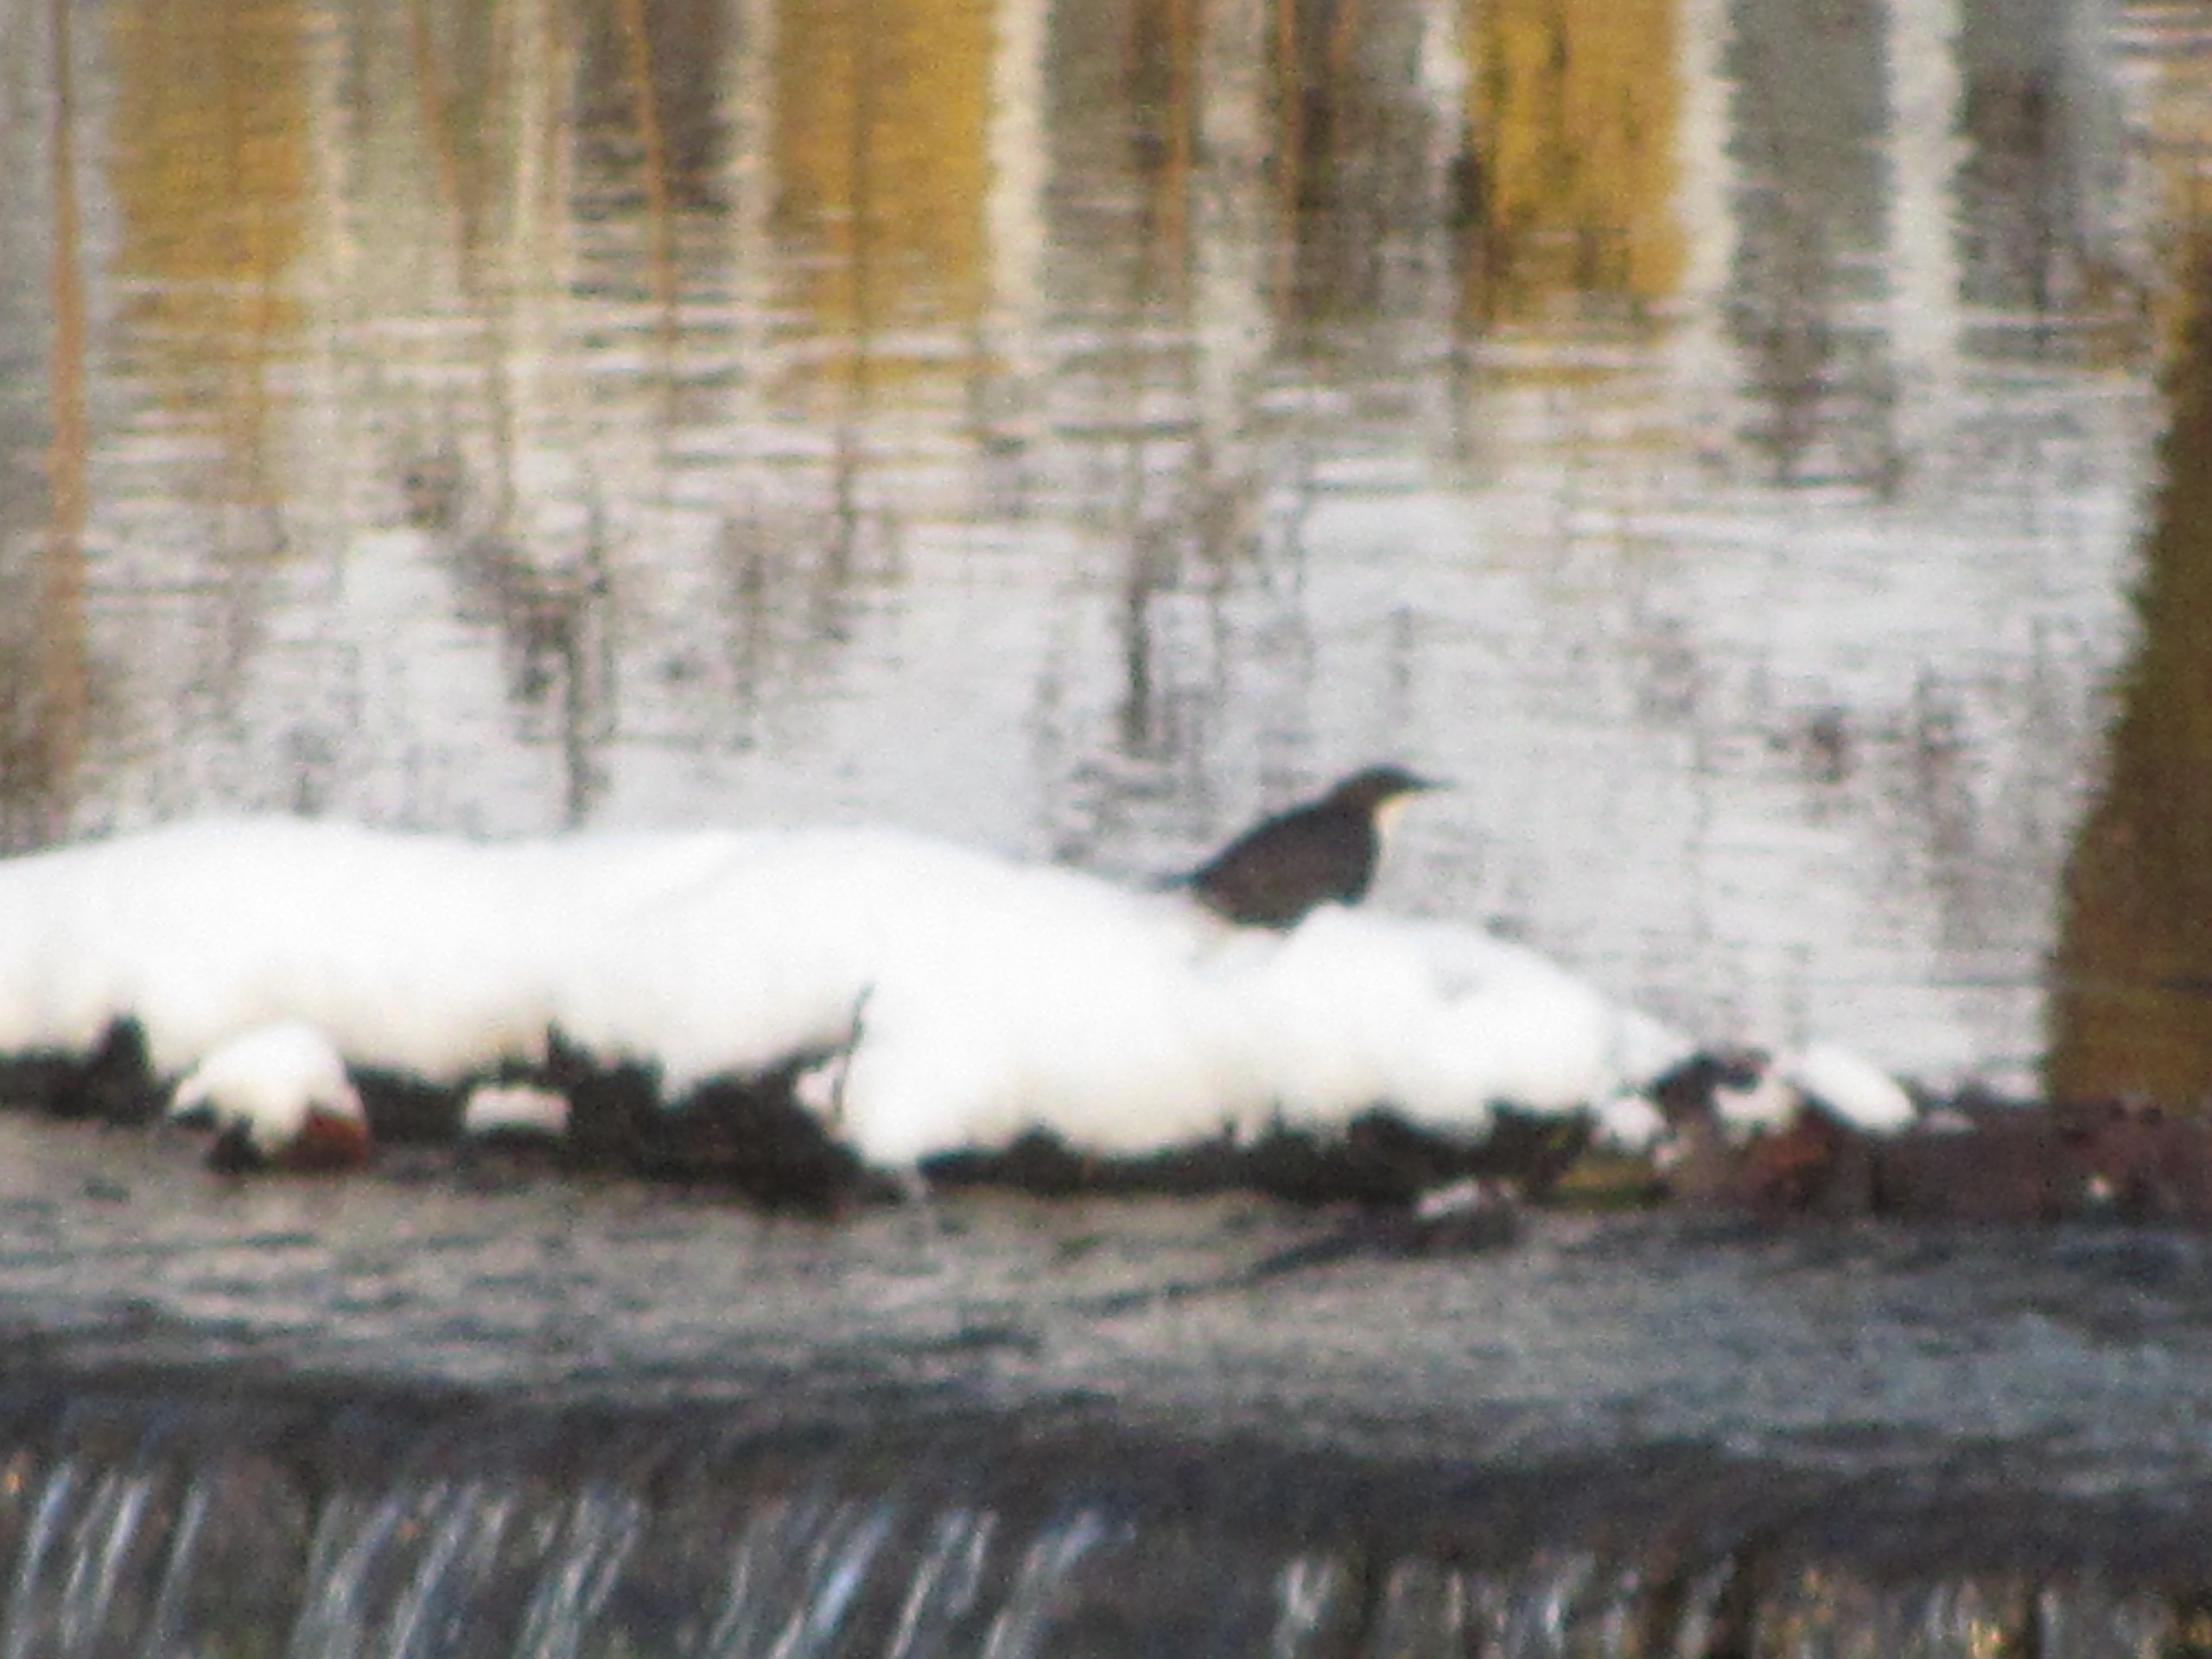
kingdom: Animalia
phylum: Chordata
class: Aves
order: Passeriformes
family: Cinclidae
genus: Cinclus
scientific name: Cinclus cinclus
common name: Vandstær
